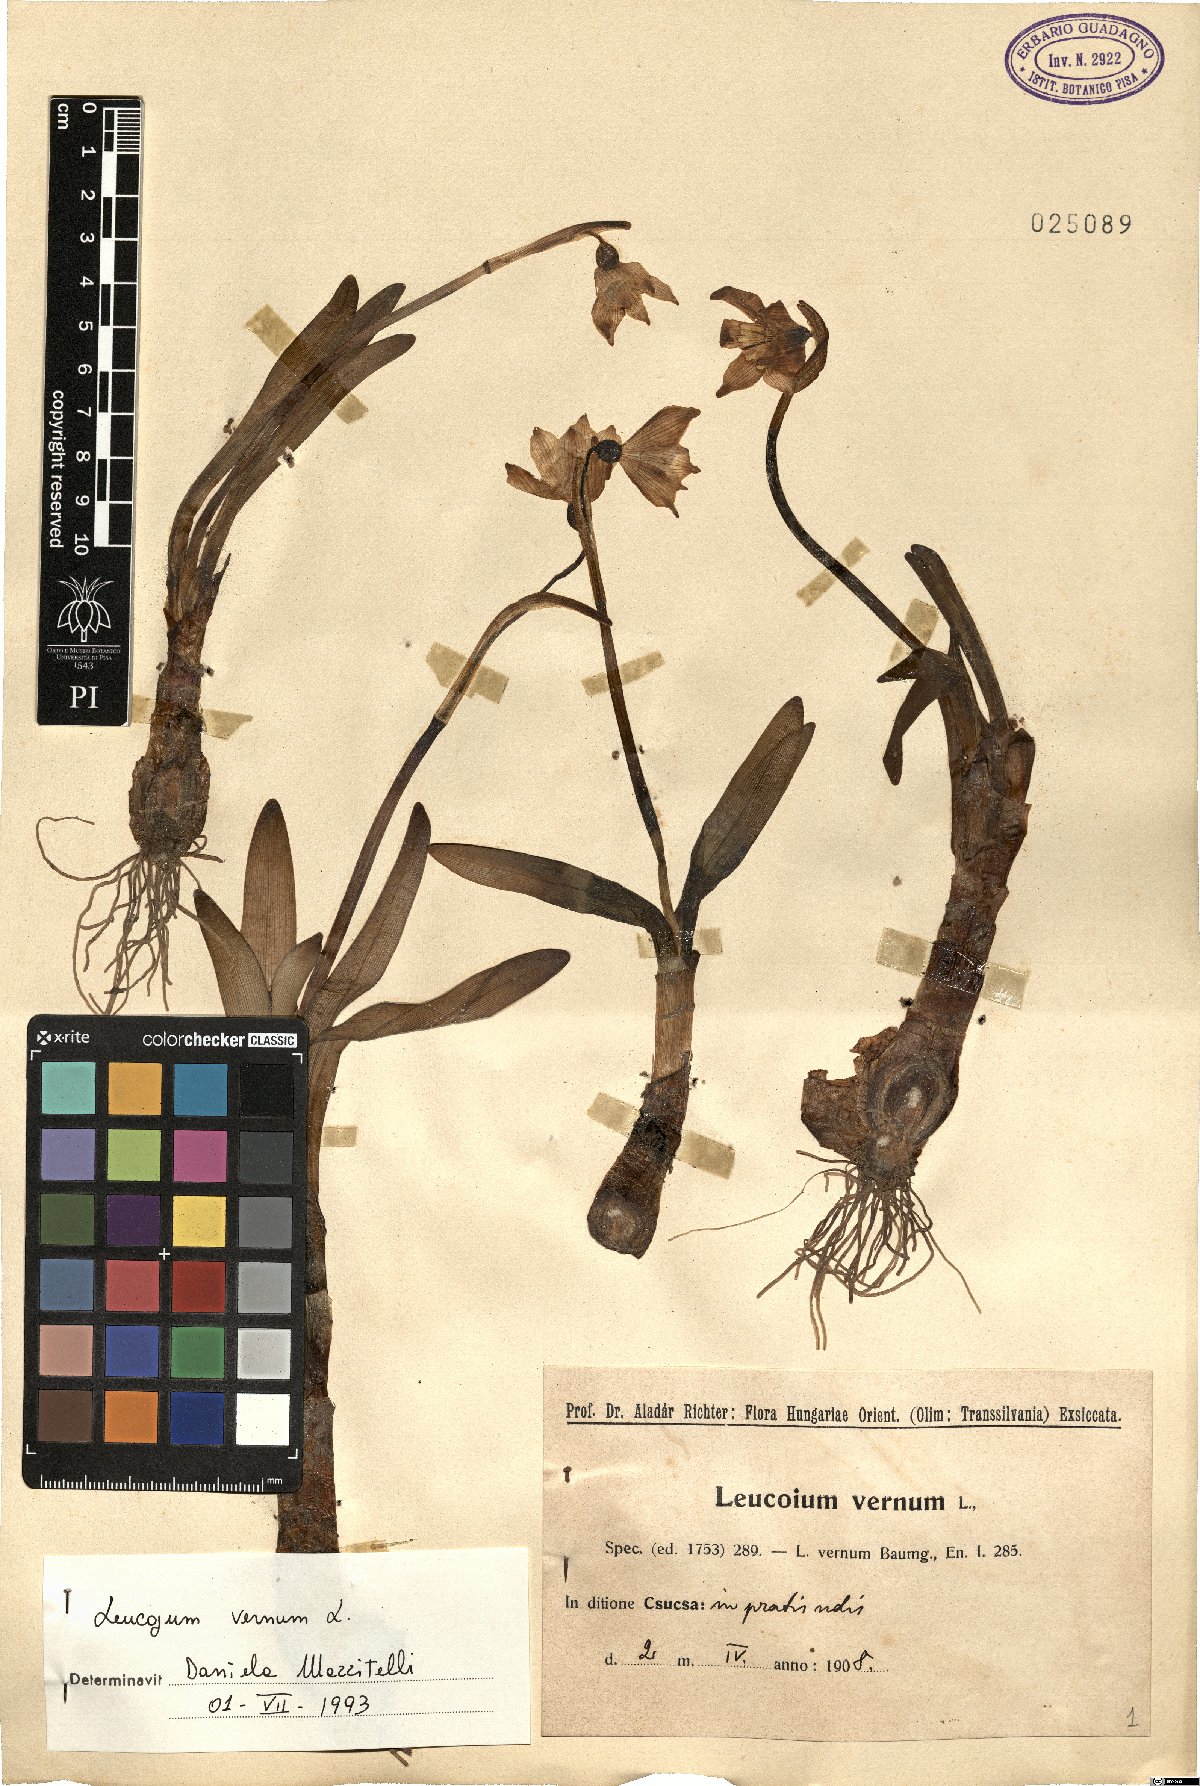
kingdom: Plantae
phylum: Tracheophyta
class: Liliopsida
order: Asparagales
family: Amaryllidaceae
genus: Leucojum
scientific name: Leucojum vernum
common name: Spring snowflake
